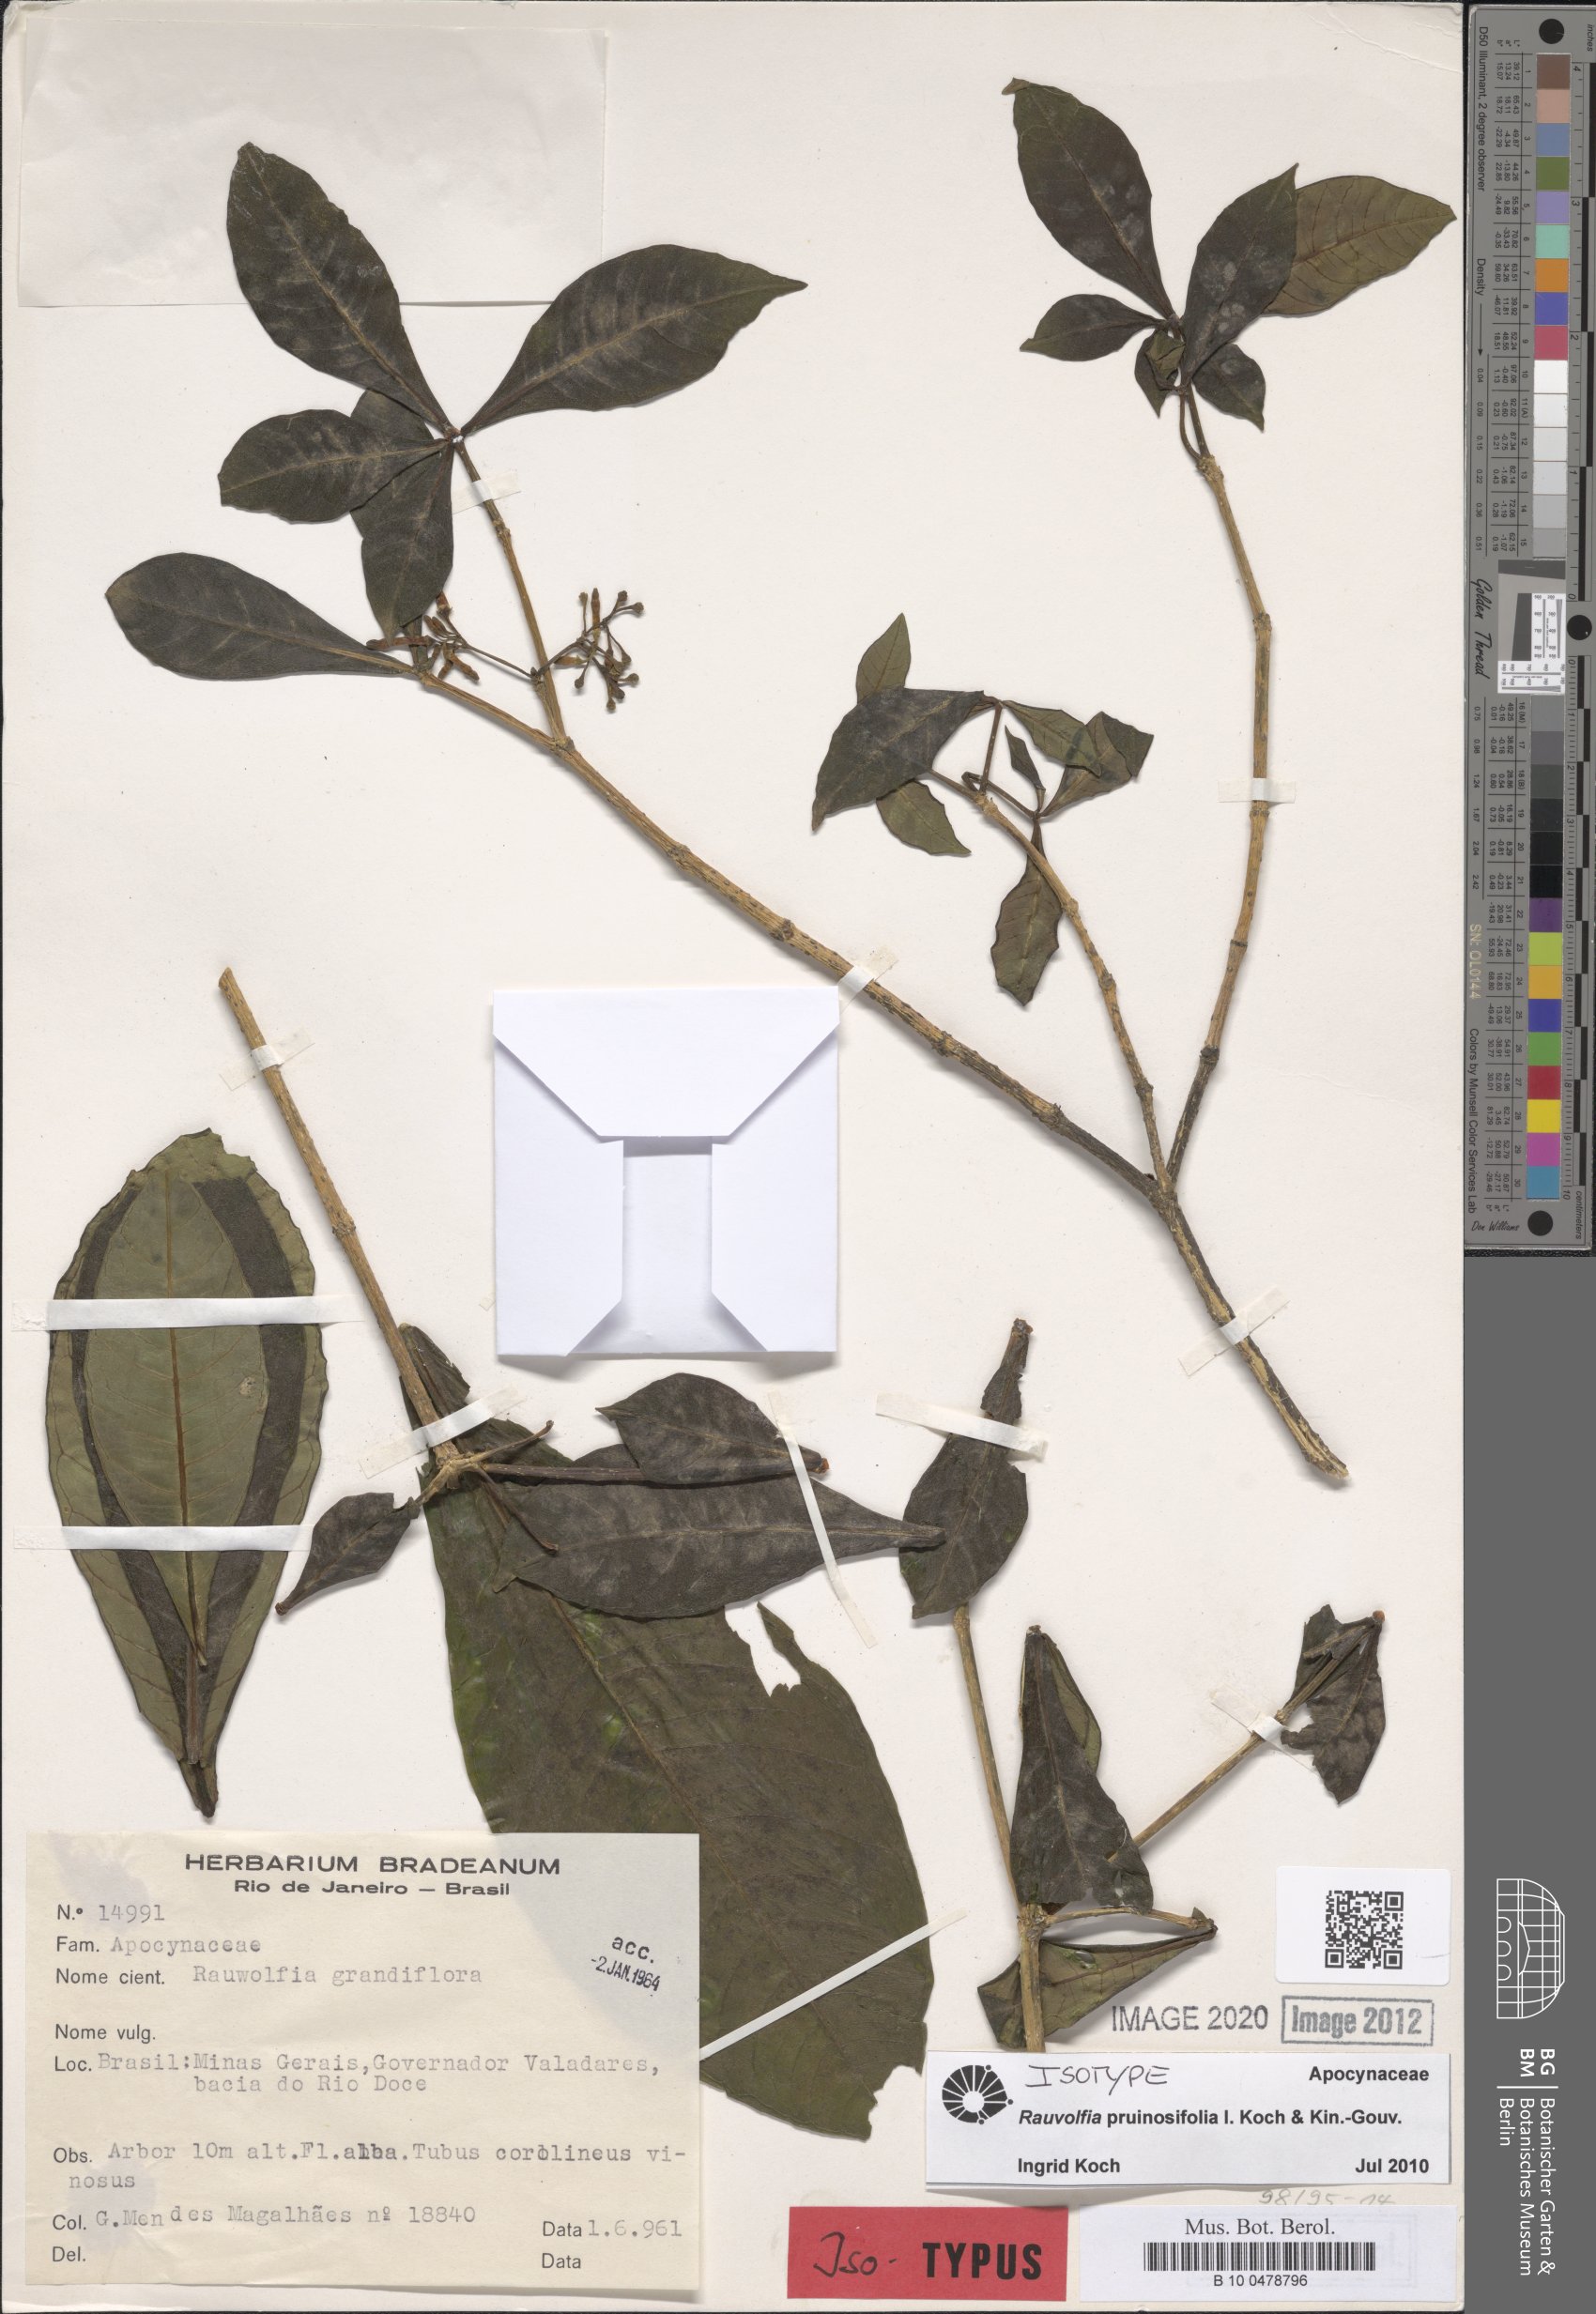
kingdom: Plantae
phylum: Tracheophyta
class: Magnoliopsida
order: Gentianales
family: Apocynaceae
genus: Rauvolfia
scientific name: Rauvolfia pruinosifolia
